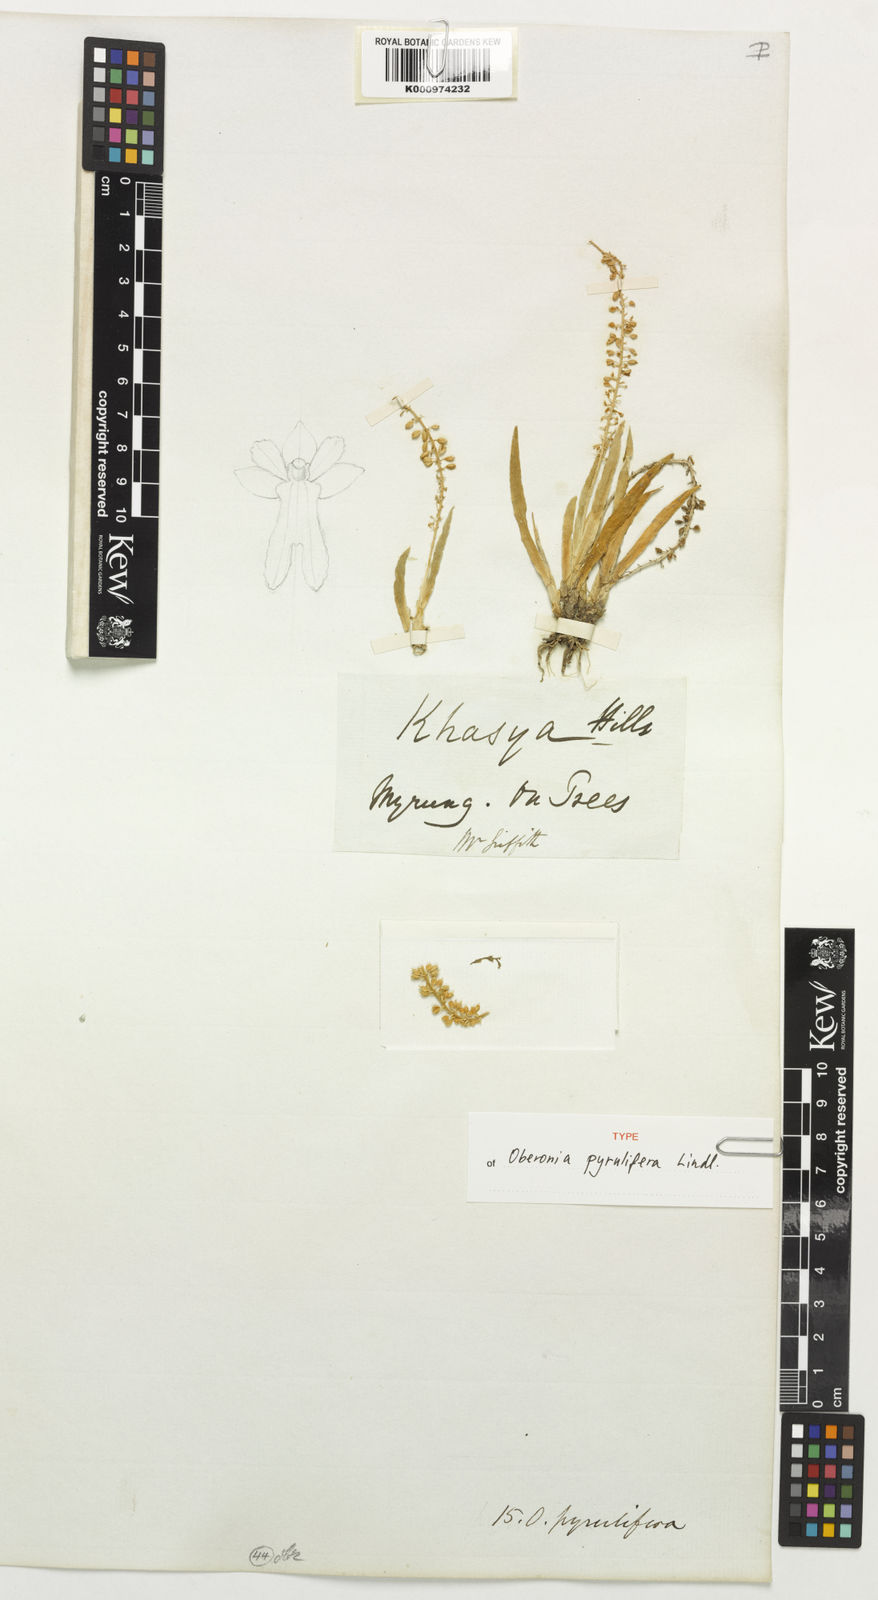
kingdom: Plantae
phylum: Tracheophyta
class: Liliopsida
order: Asparagales
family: Orchidaceae
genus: Oberonia
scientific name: Oberonia pyrulifera
